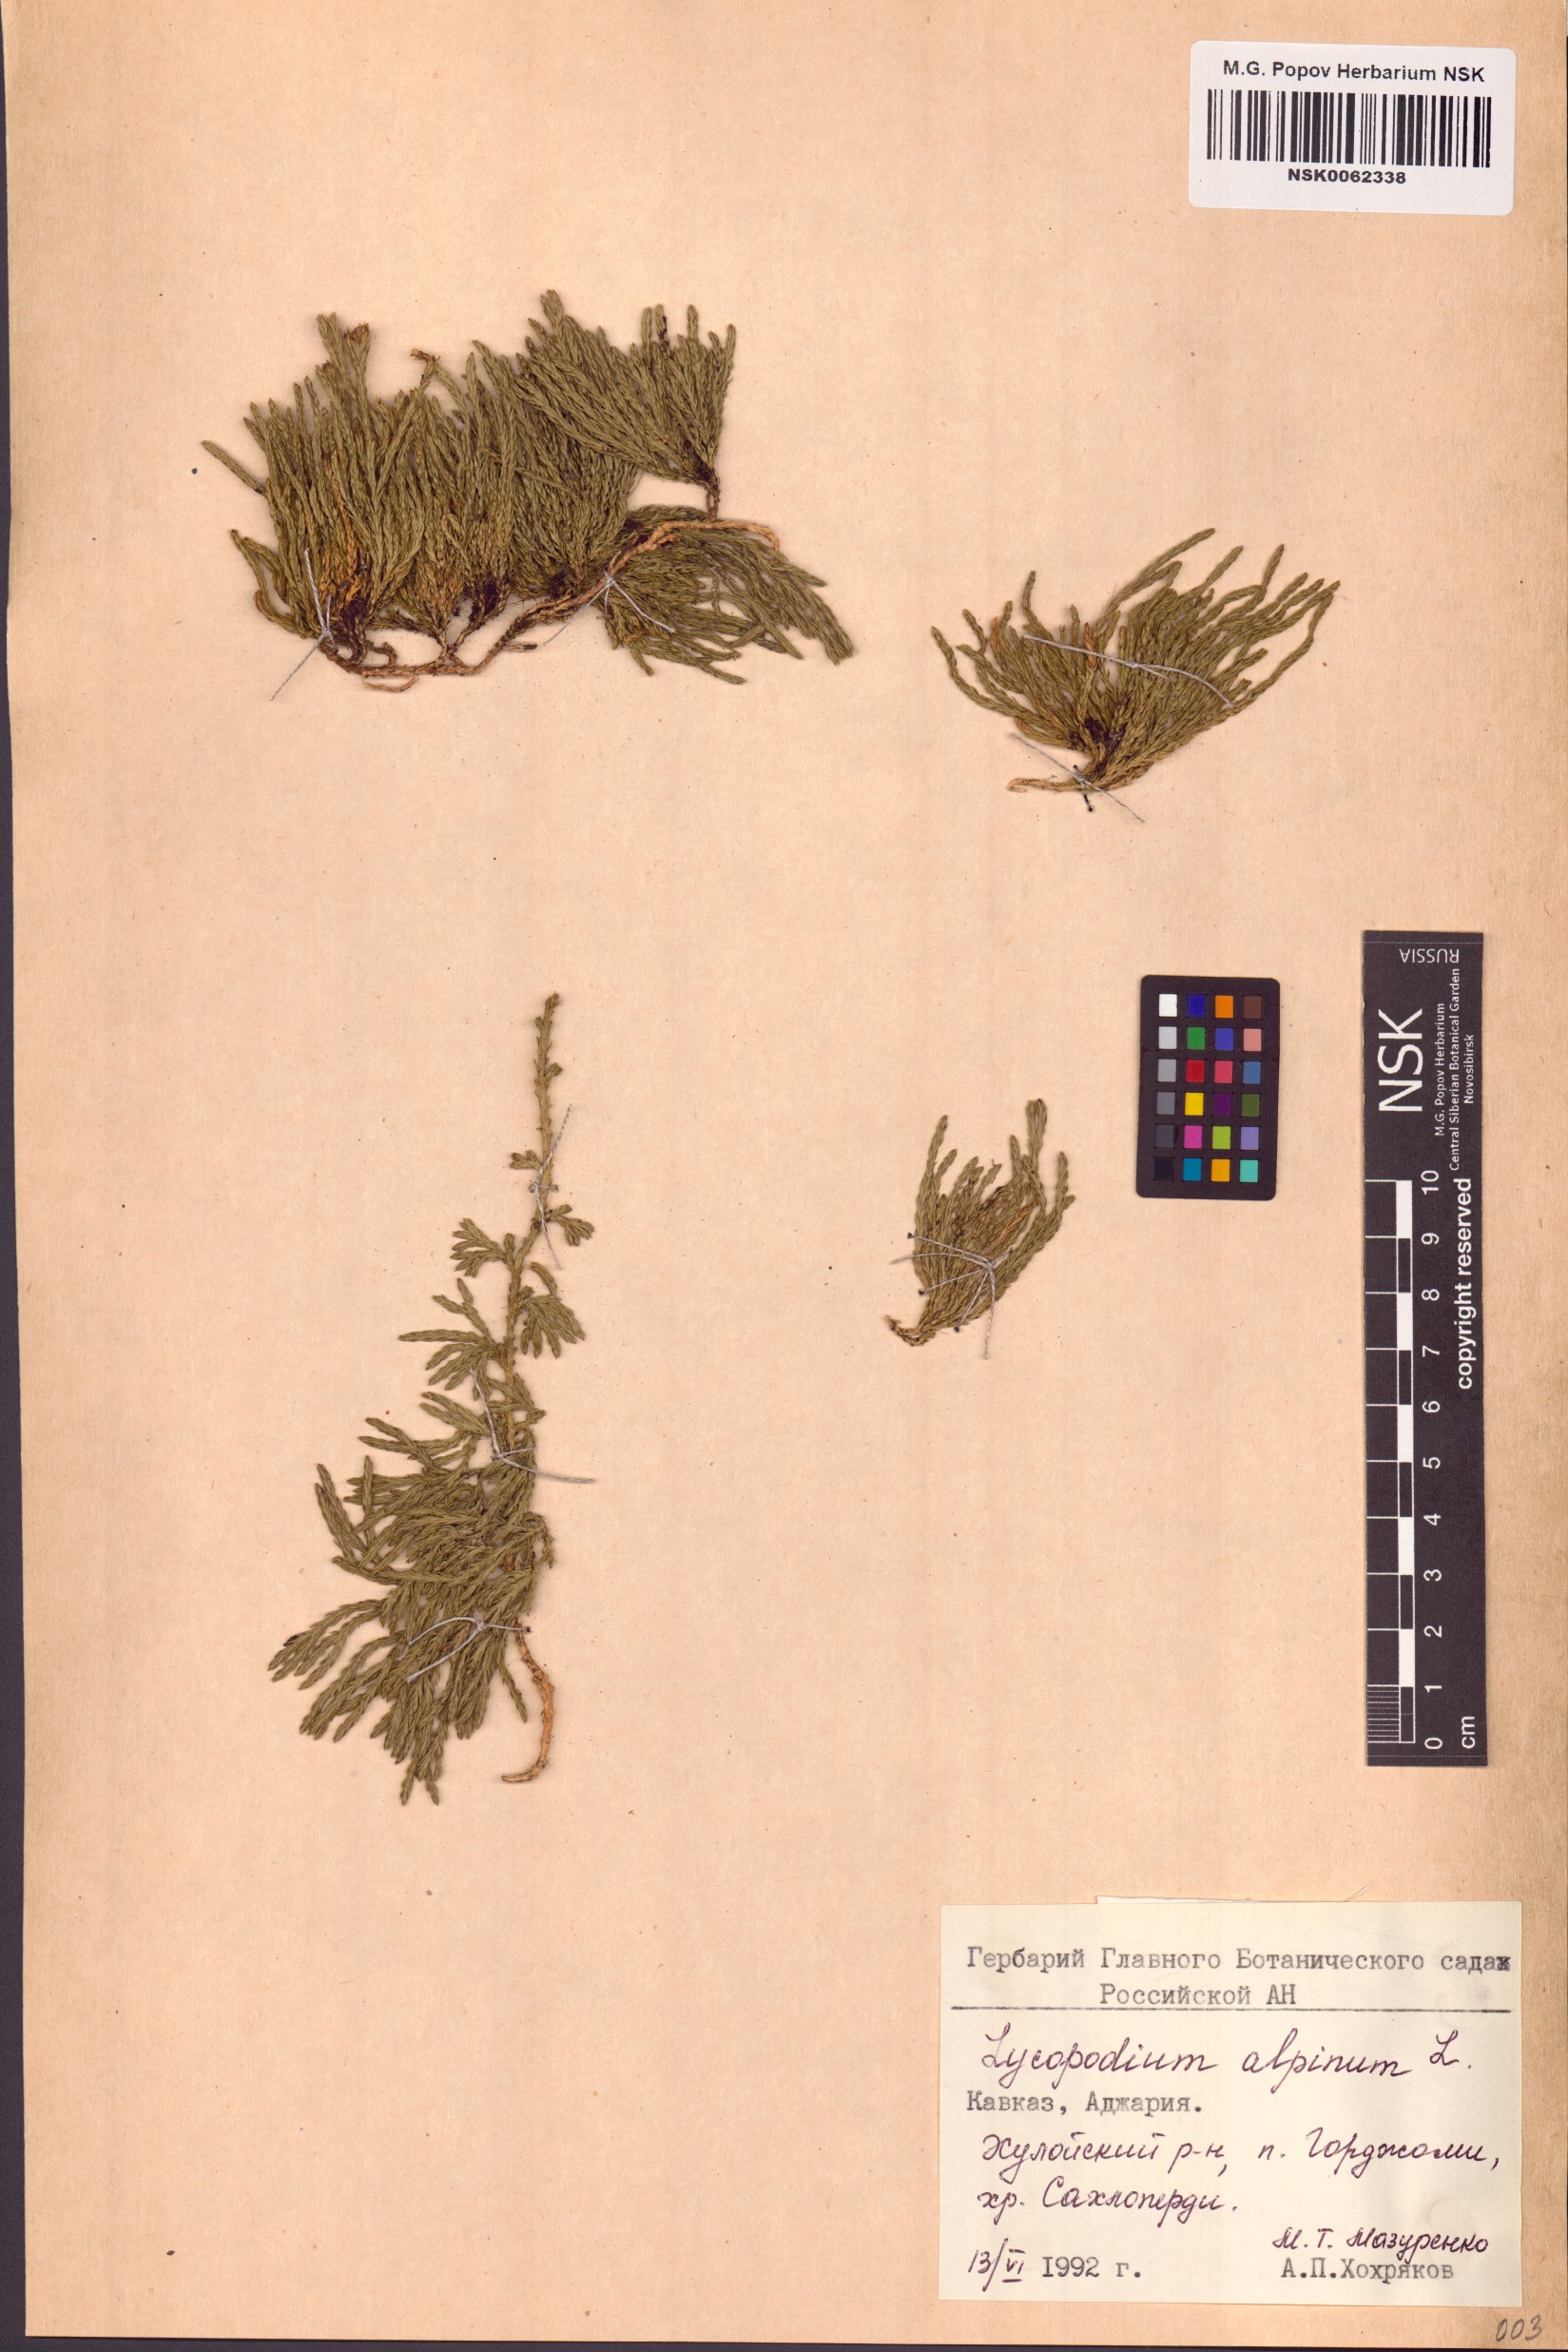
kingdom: Plantae
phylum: Tracheophyta
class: Lycopodiopsida
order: Lycopodiales
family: Lycopodiaceae
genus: Diphasiastrum
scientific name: Diphasiastrum alpinum
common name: Alpine clubmoss
